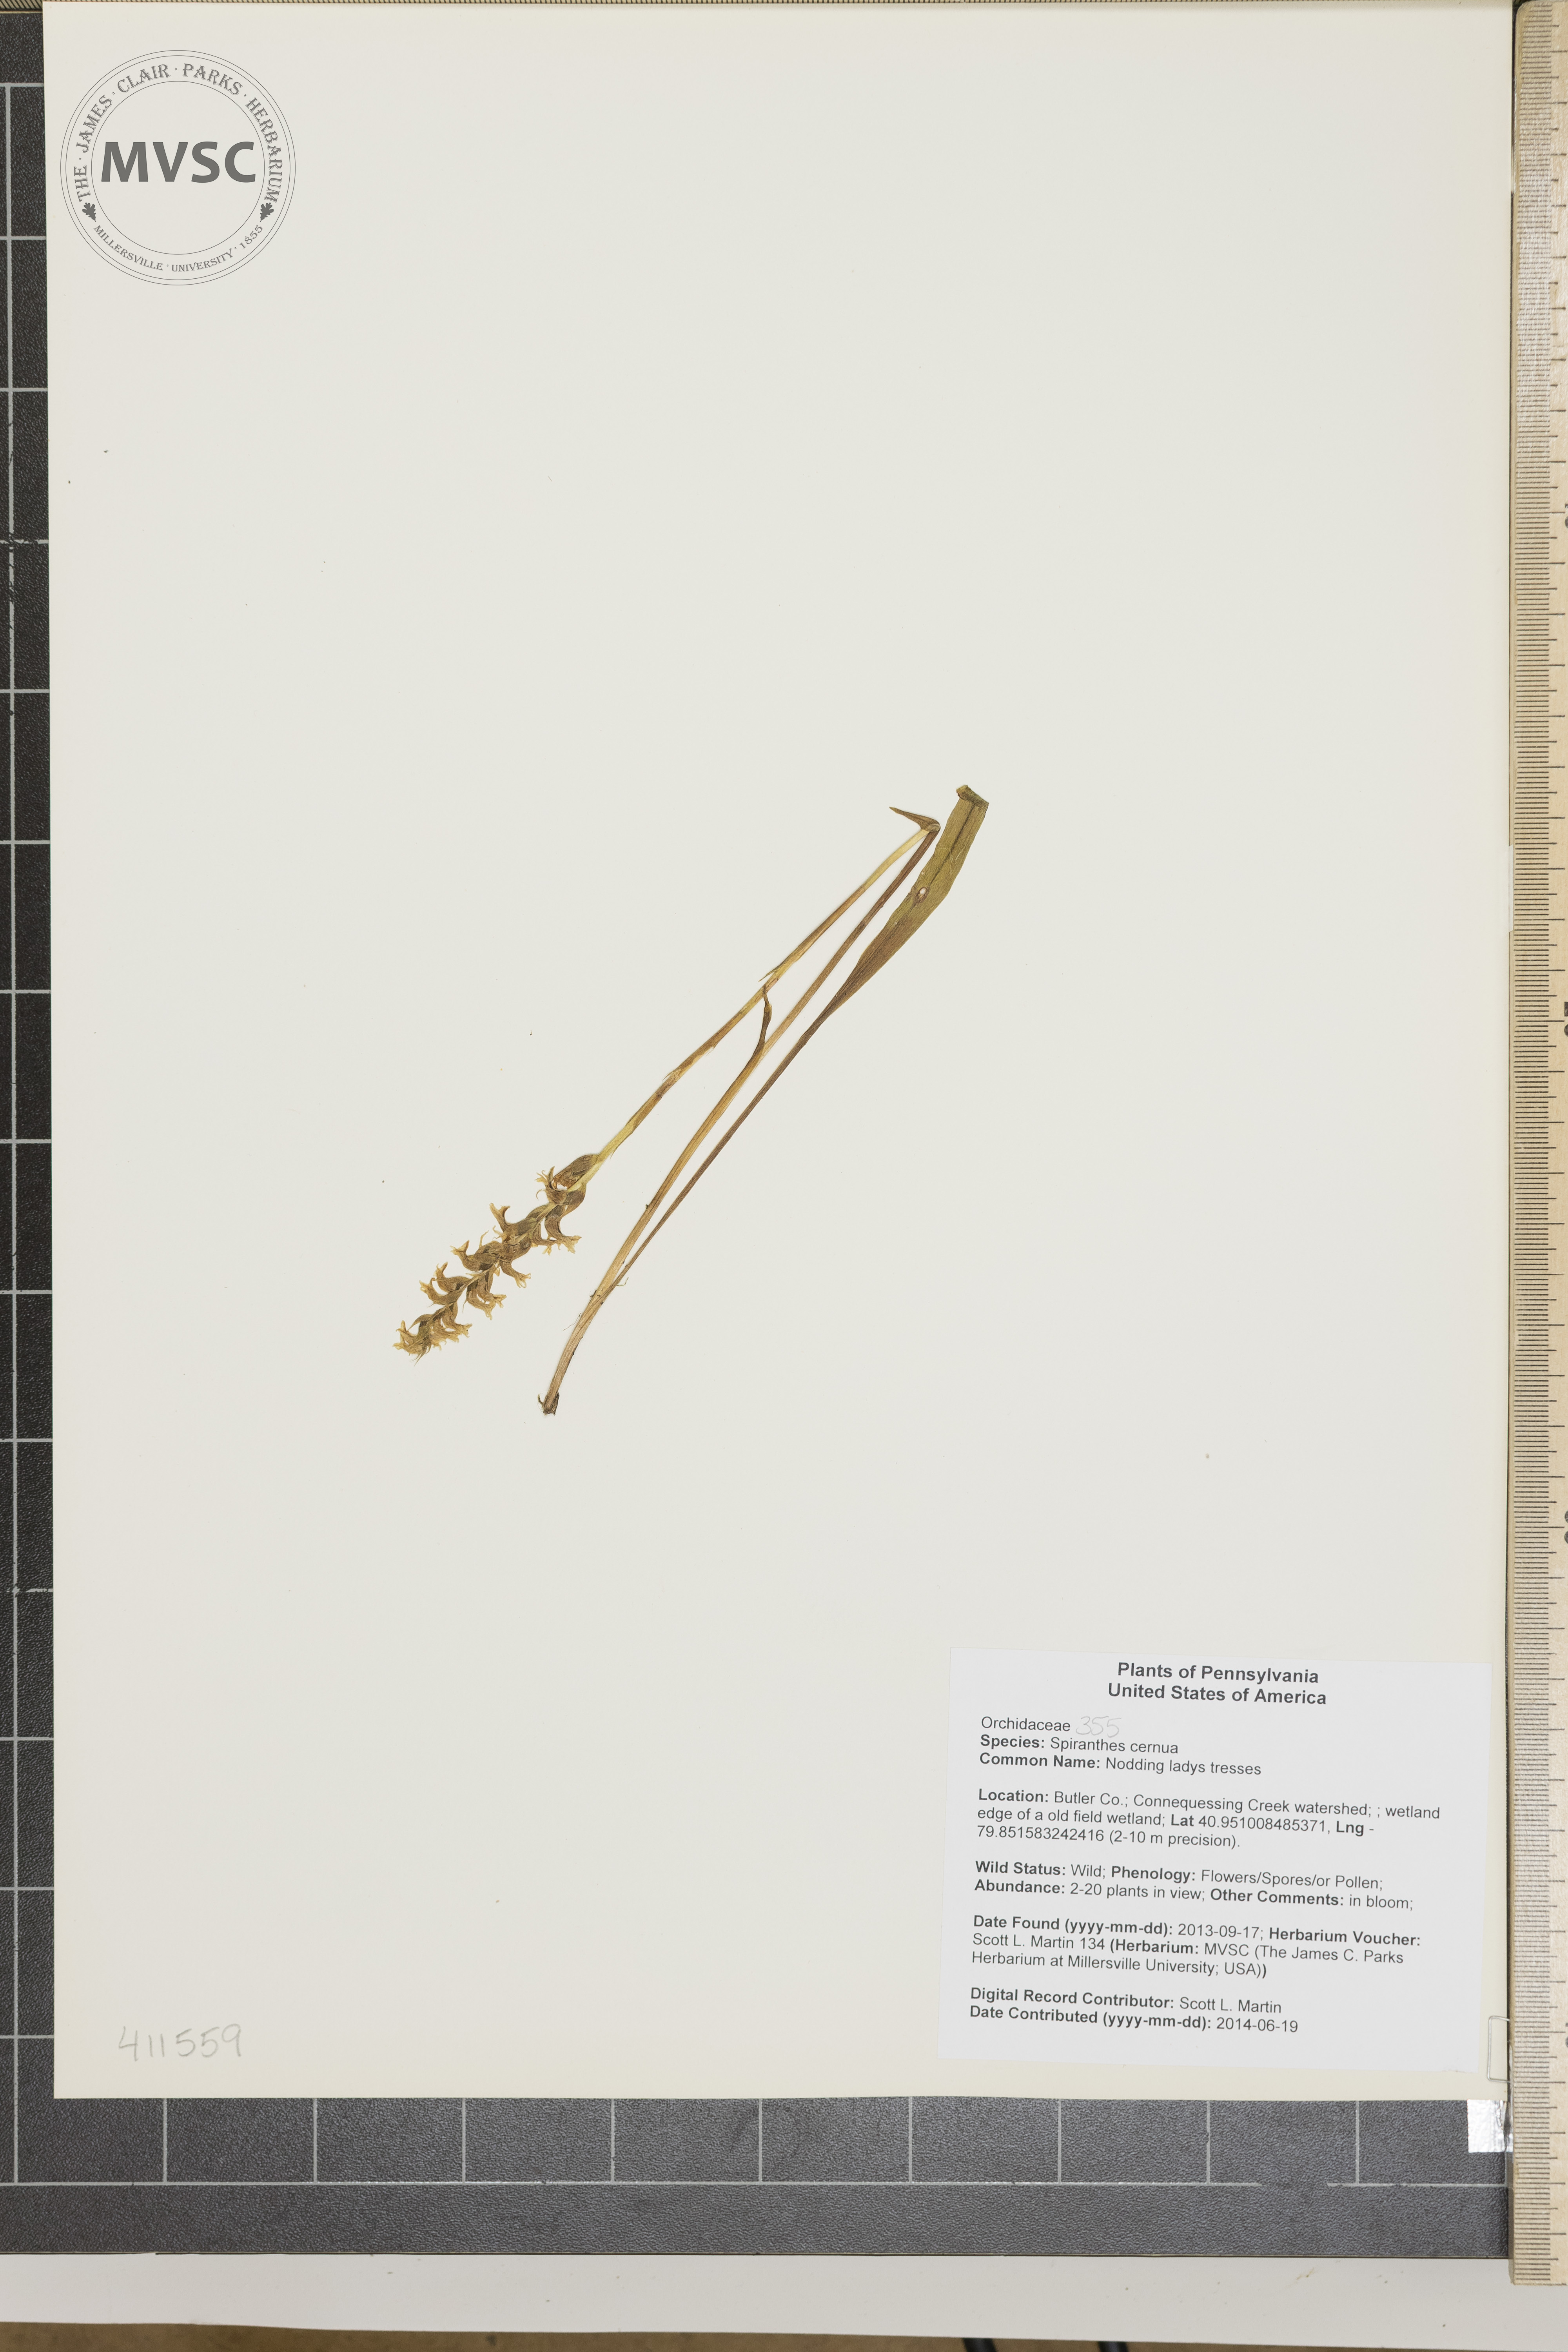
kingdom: Plantae
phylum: Tracheophyta
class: Liliopsida
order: Asparagales
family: Orchidaceae
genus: Spiranthes
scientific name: Spiranthes cernua
